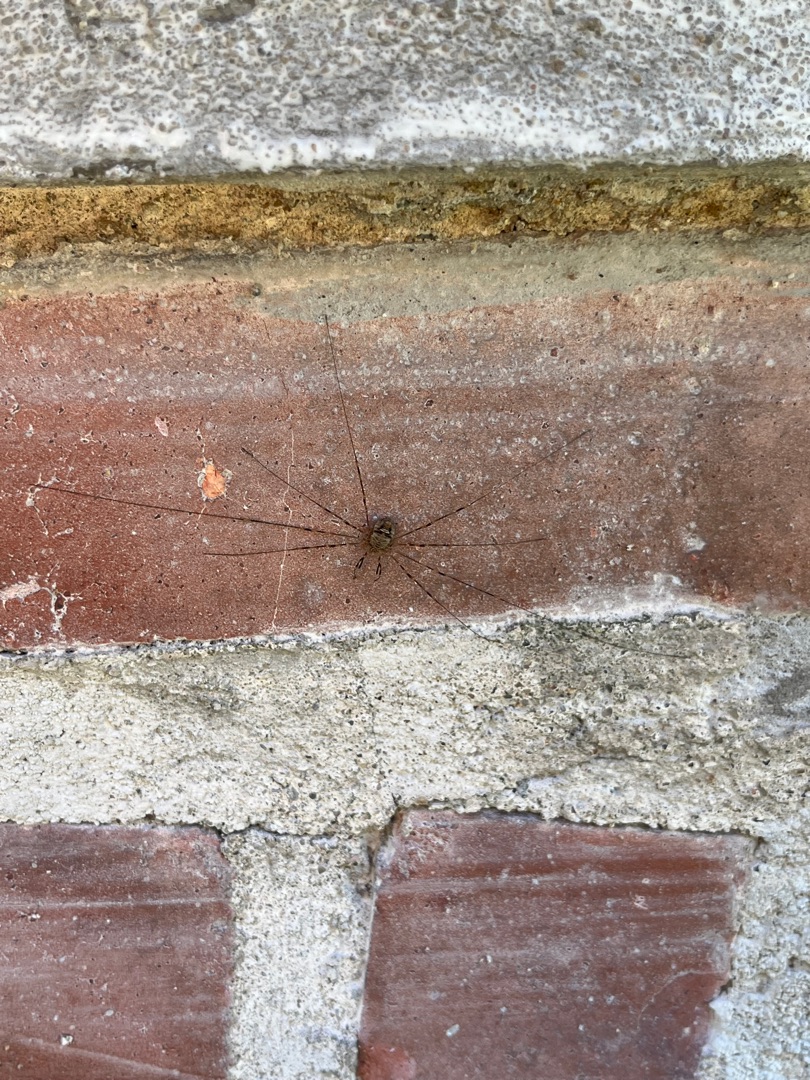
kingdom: Animalia
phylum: Arthropoda
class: Arachnida
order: Opiliones
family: Phalangiidae
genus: Dicranopalpus
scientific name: Dicranopalpus ramosus
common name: Gaffelmejer
